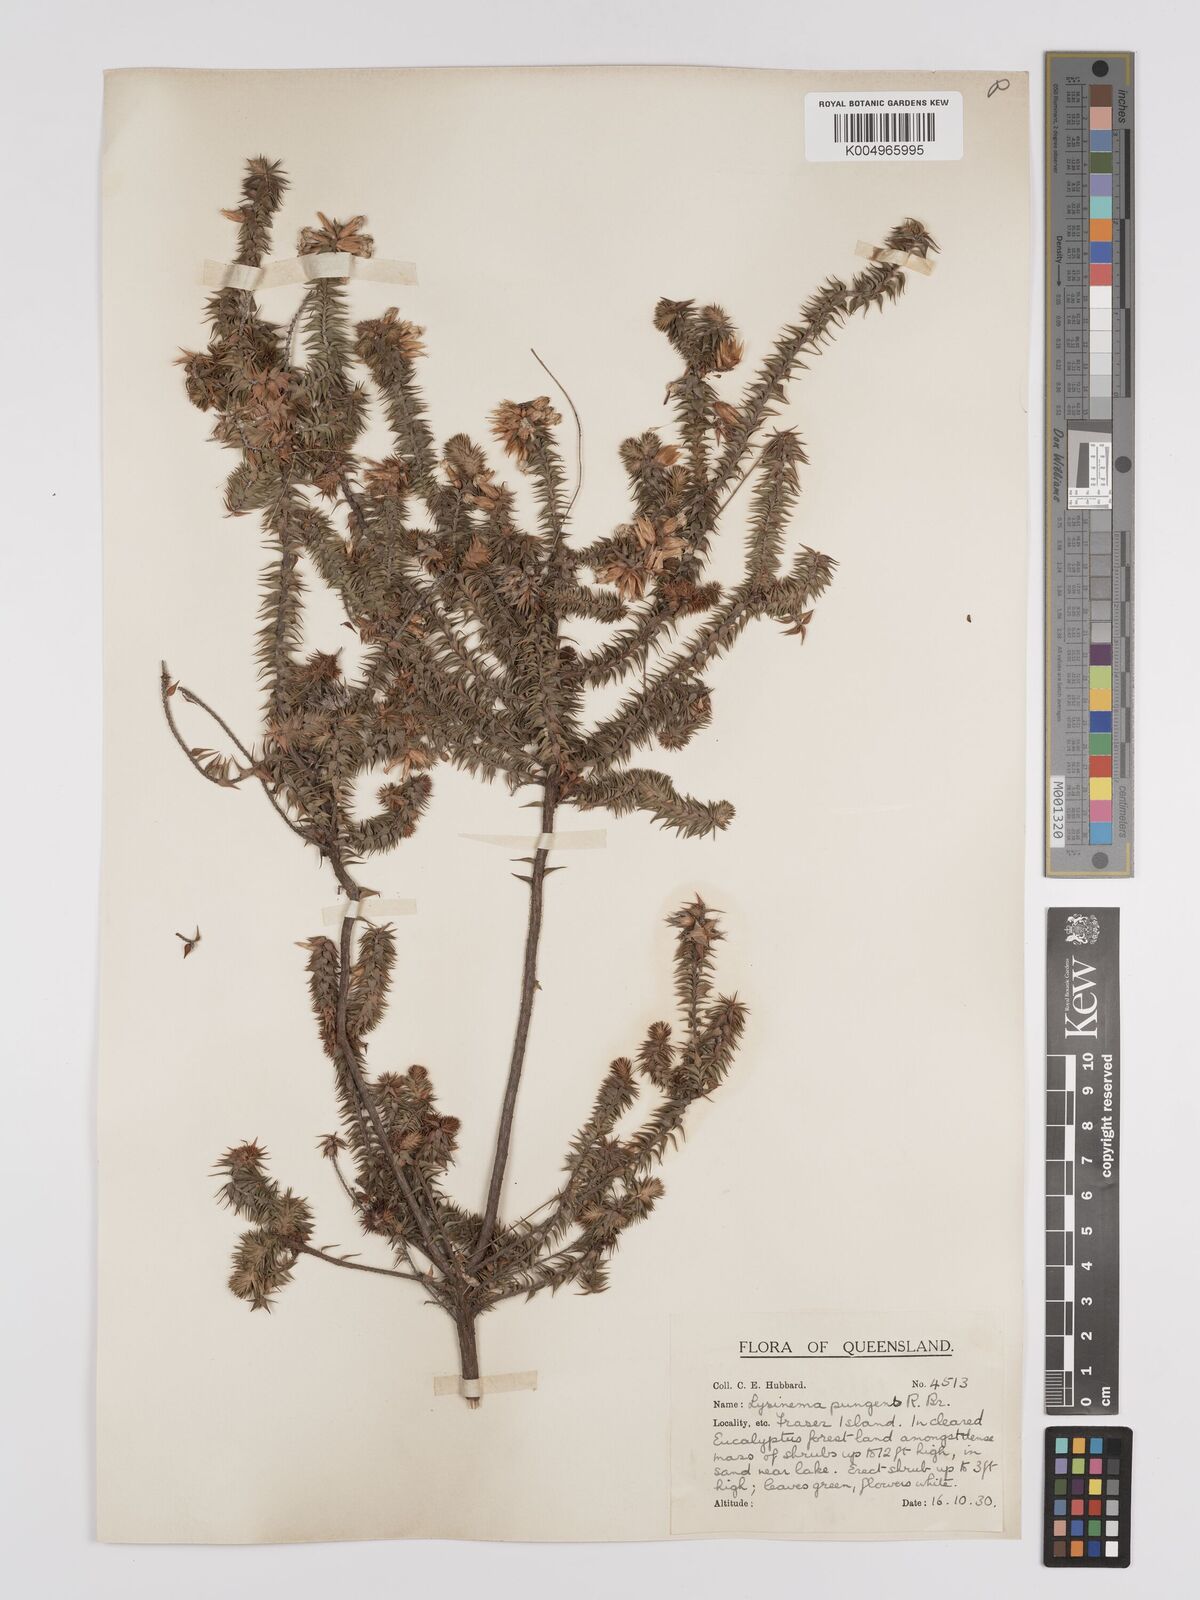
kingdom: Plantae
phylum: Tracheophyta
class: Magnoliopsida
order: Ericales
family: Ericaceae
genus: Woollsia
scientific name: Woollsia pungens
